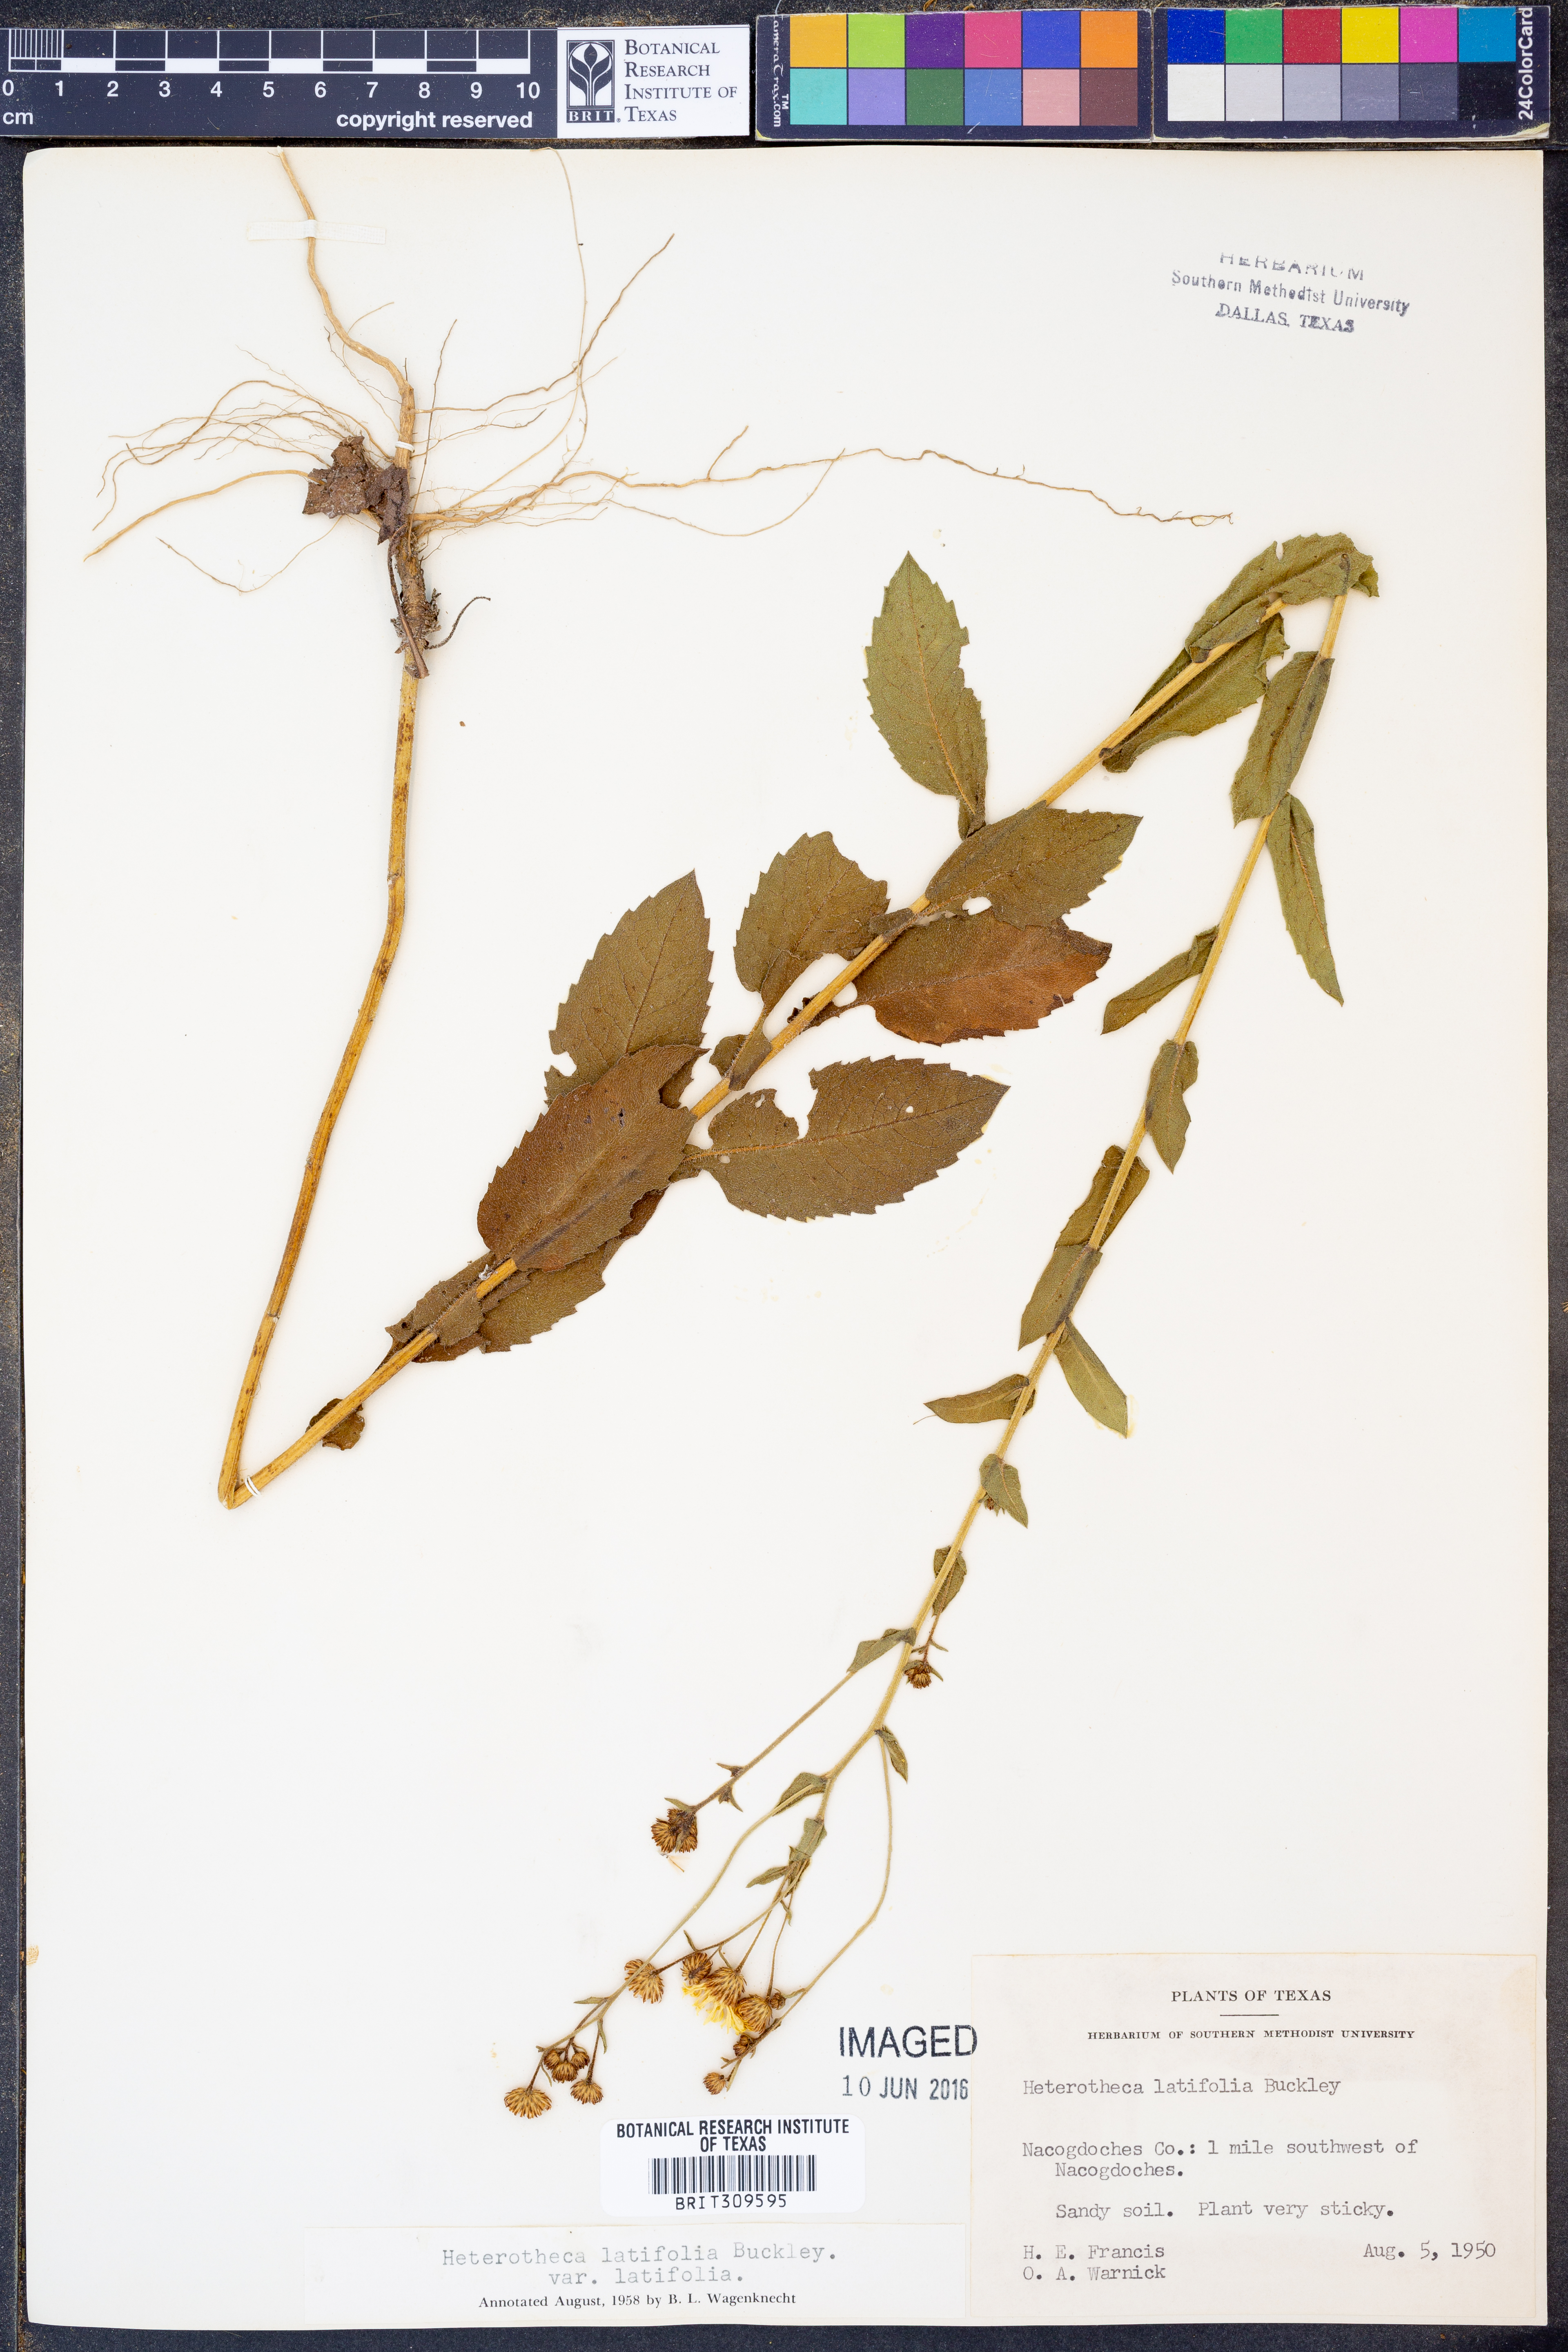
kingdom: Plantae
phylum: Tracheophyta
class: Magnoliopsida
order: Asterales
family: Asteraceae
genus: Heterotheca
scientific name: Heterotheca subaxillaris
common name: Camphorweed
